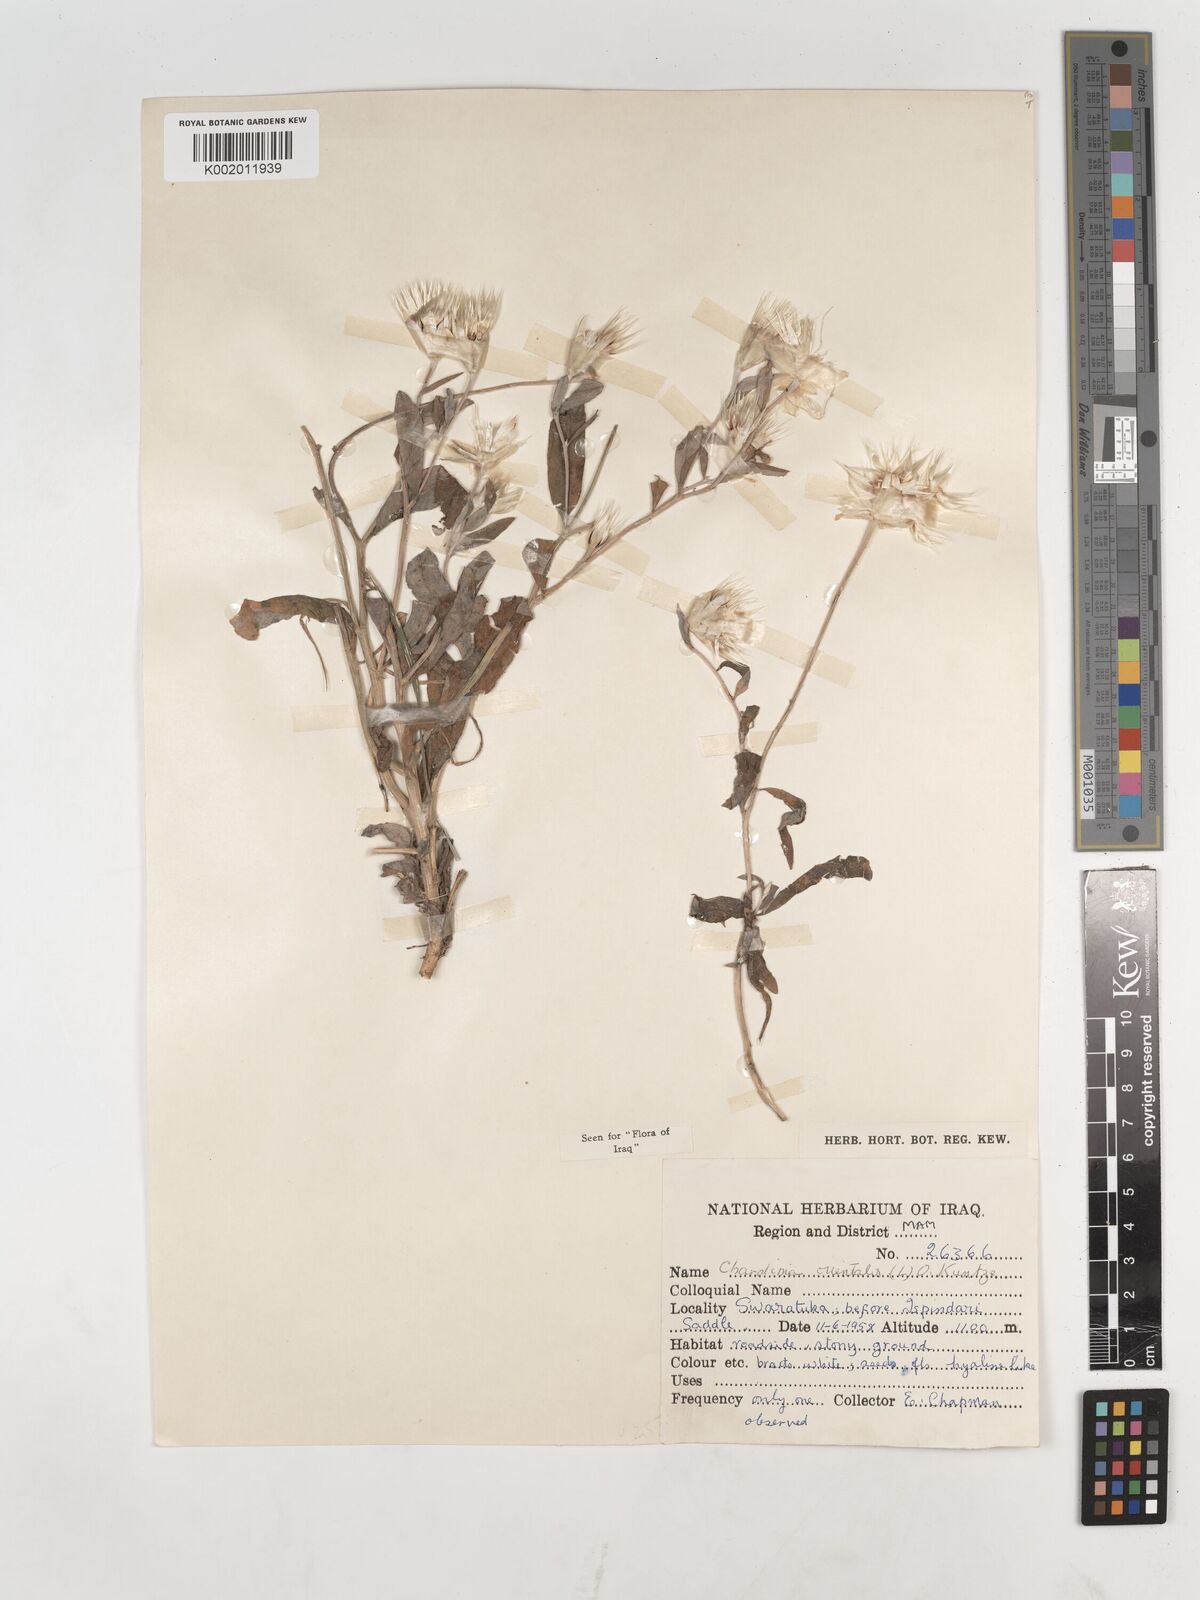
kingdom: Plantae
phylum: Tracheophyta
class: Magnoliopsida
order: Asterales
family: Asteraceae
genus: Chardinia
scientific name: Chardinia orientalis
